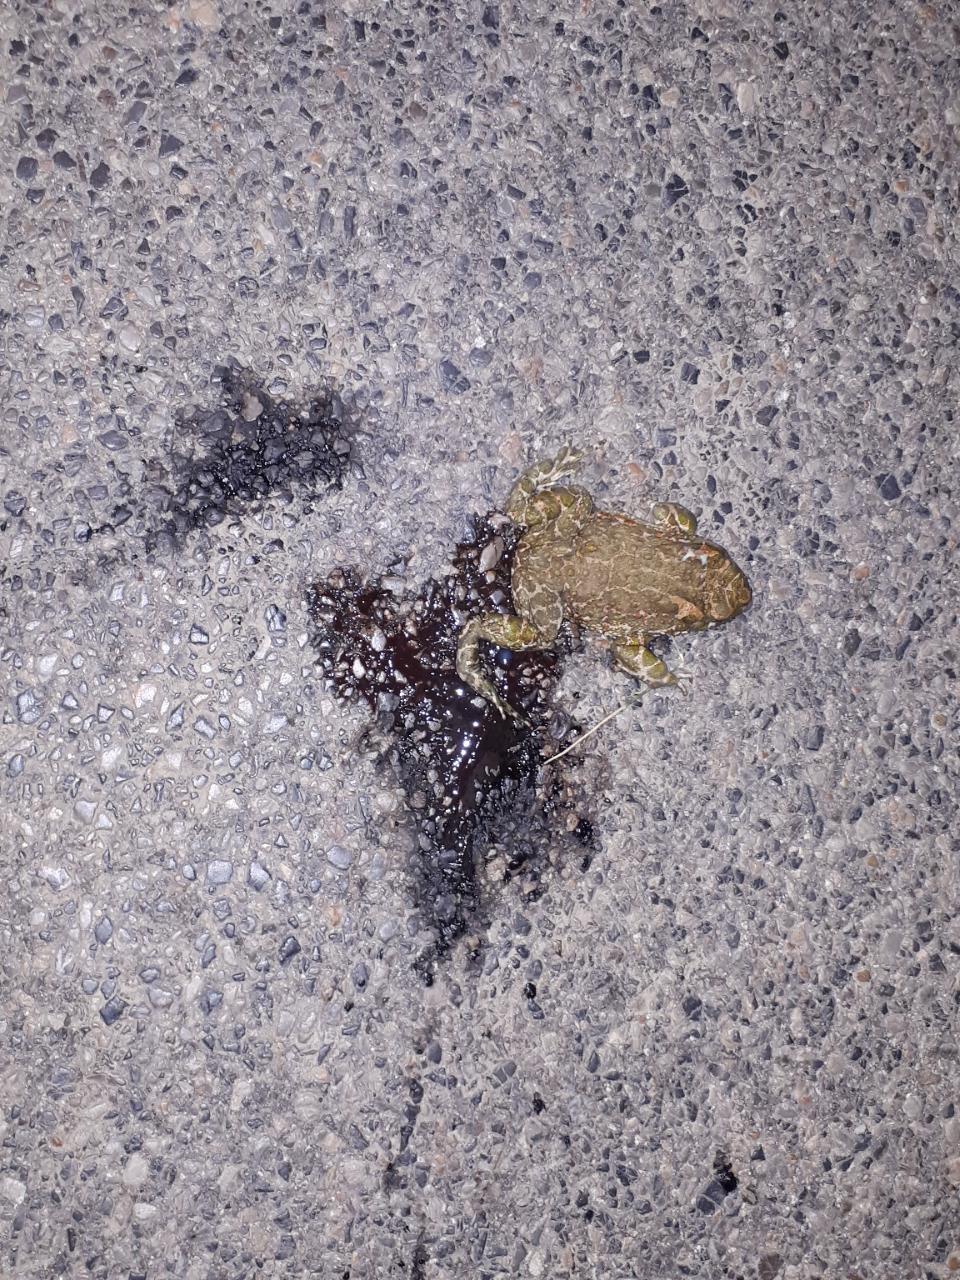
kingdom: Animalia
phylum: Chordata
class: Amphibia
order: Anura
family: Bufonidae
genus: Bufotes
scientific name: Bufotes viridis
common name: European green toad
